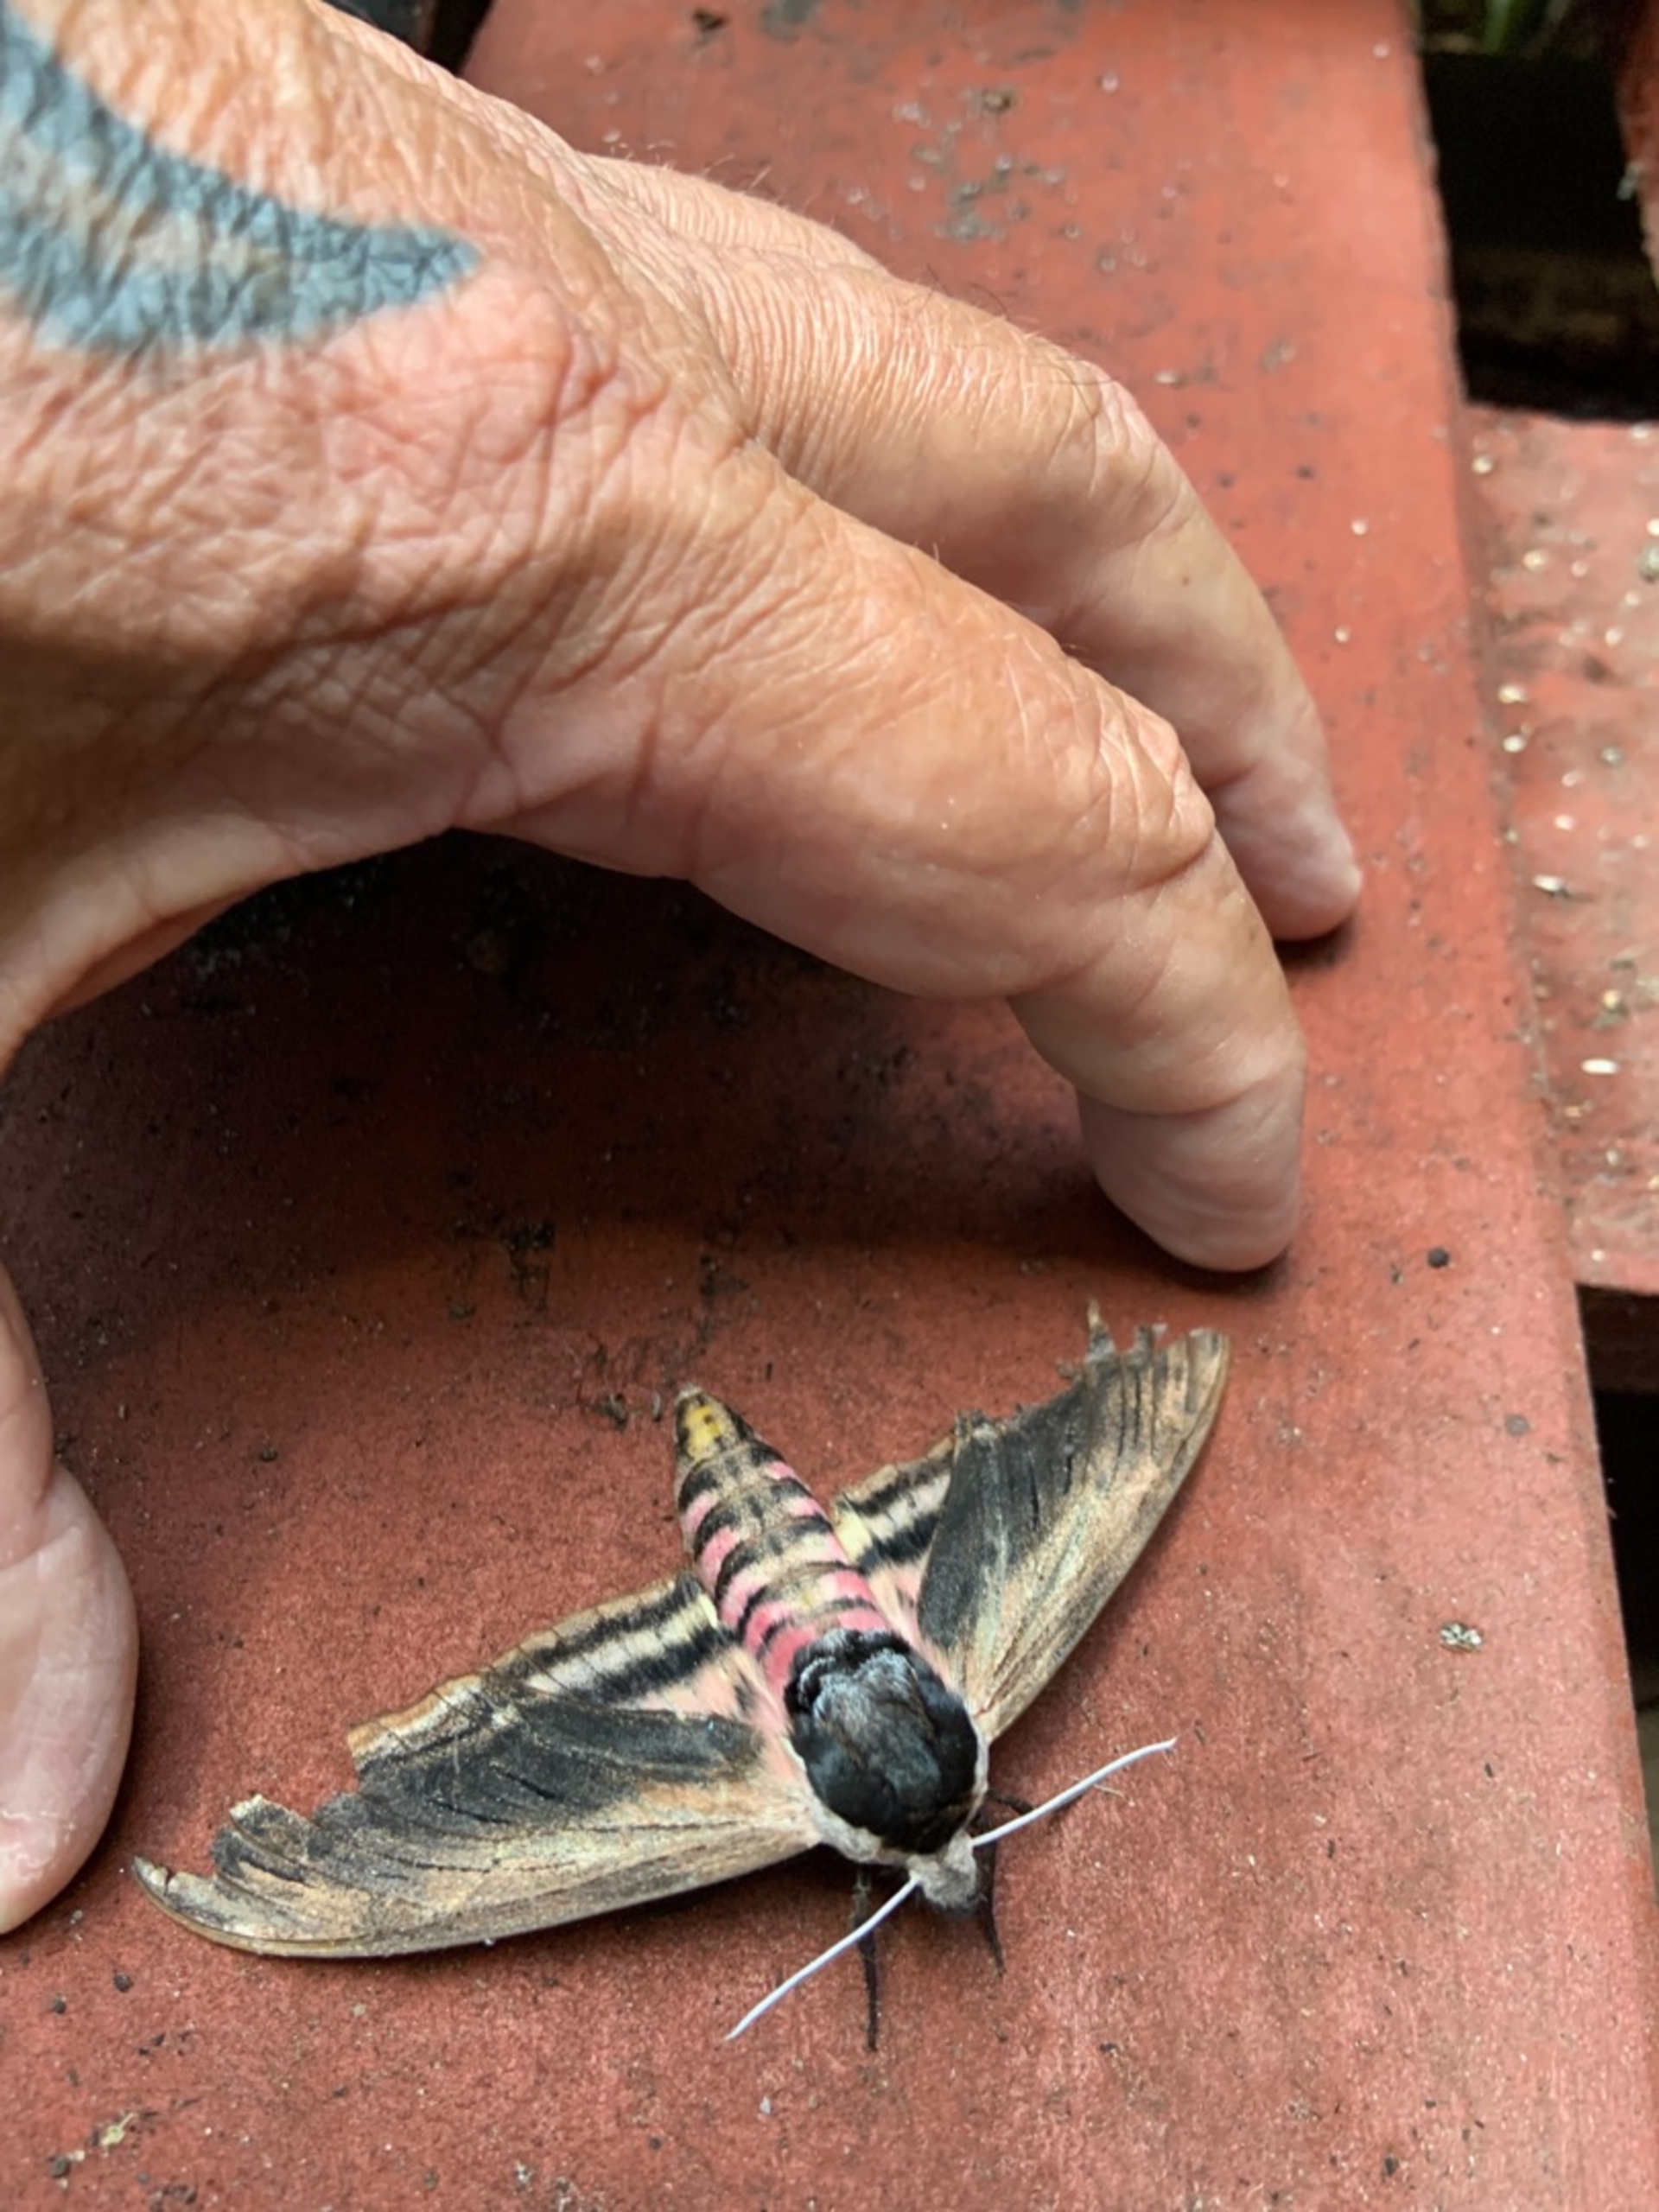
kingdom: Animalia
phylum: Arthropoda
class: Insecta
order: Lepidoptera
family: Sphingidae
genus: Sphinx
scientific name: Sphinx ligustri
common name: Ligustersværmer
